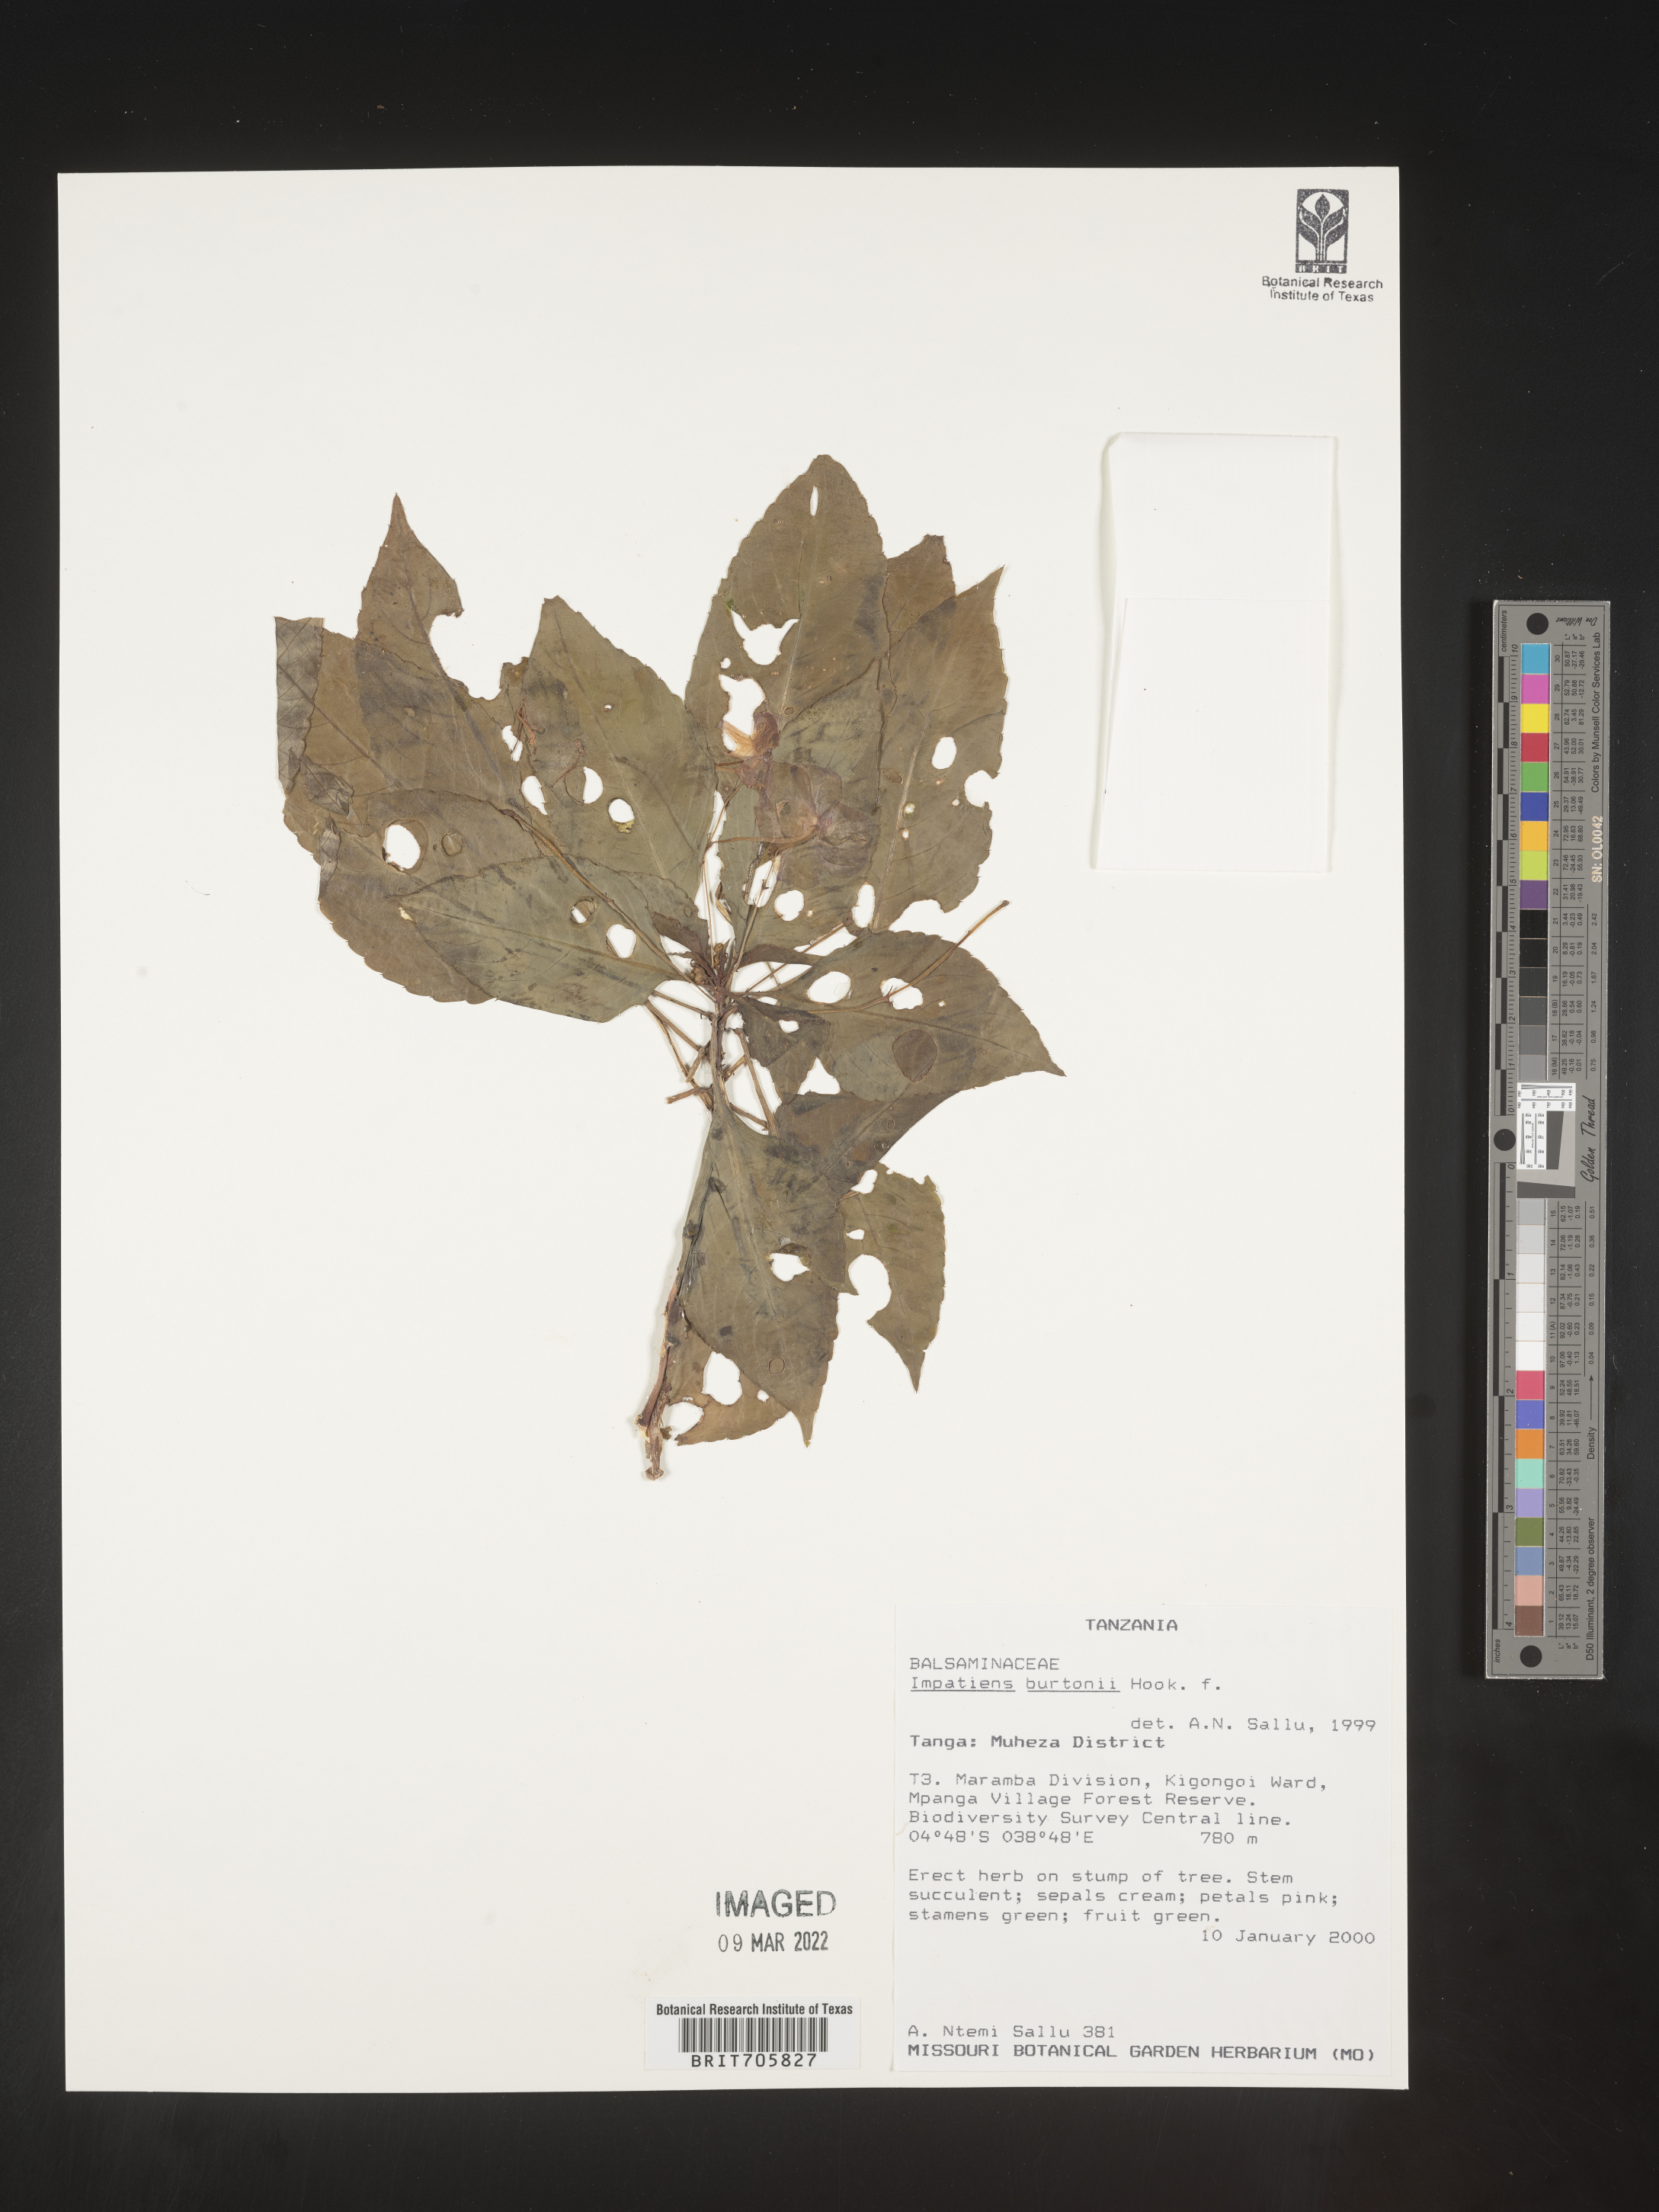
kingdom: Plantae
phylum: Tracheophyta
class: Magnoliopsida
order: Ericales
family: Balsaminaceae
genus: Impatiens
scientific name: Impatiens
